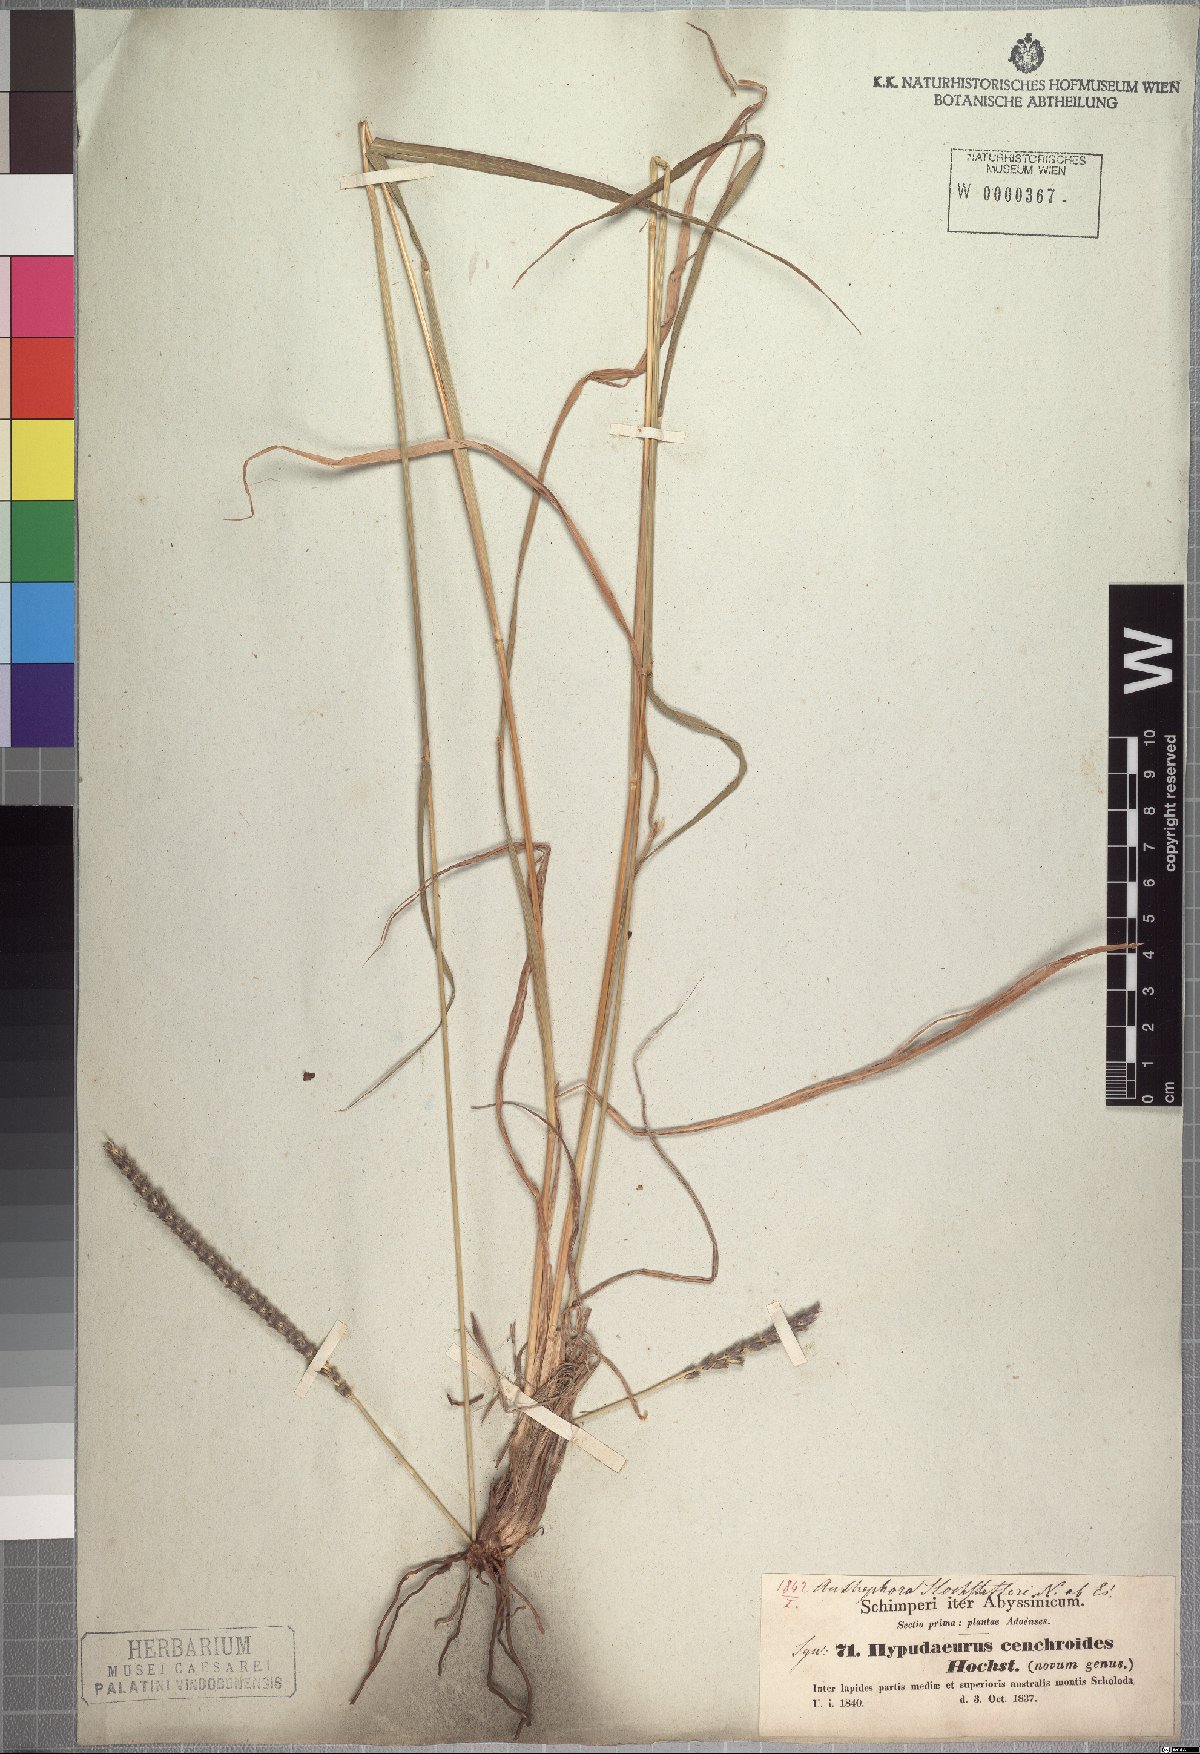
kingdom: Plantae
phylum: Tracheophyta
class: Liliopsida
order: Poales
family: Poaceae
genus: Anthephora
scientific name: Anthephora pubescens
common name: Wool grass
